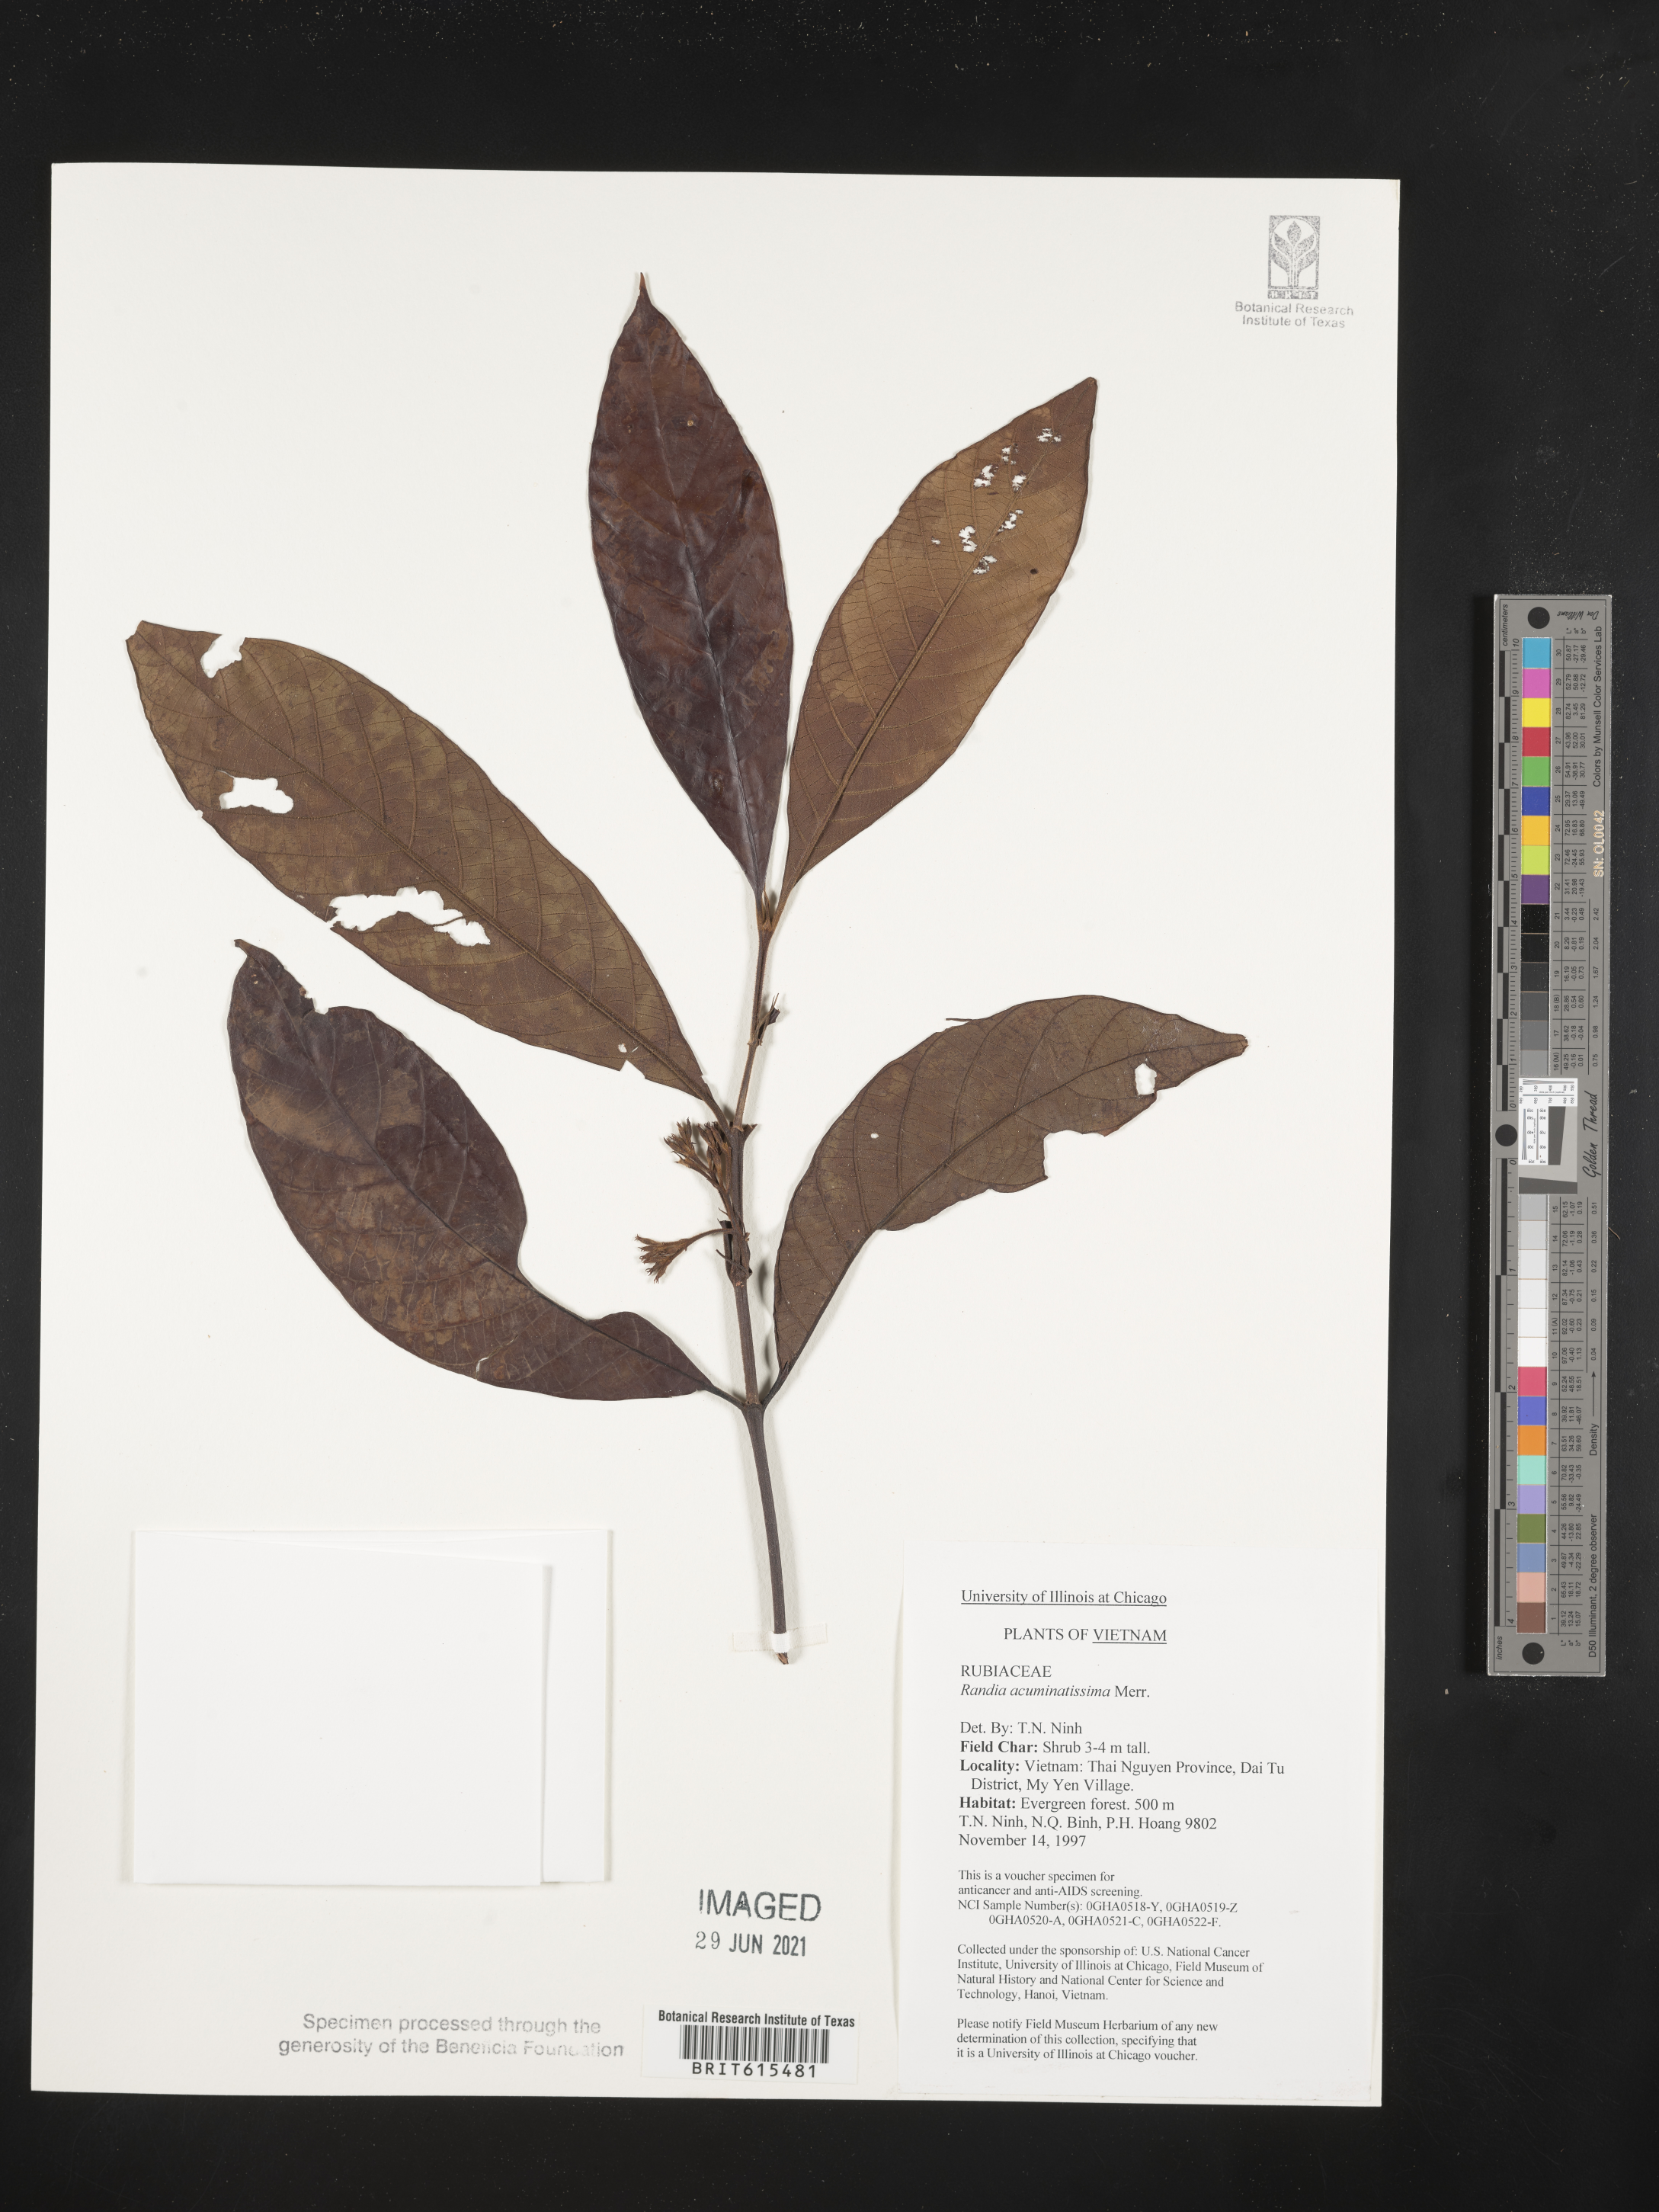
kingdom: Plantae
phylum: Tracheophyta
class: Magnoliopsida
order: Gentianales
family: Rubiaceae
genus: Aidia
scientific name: Aidia pycnantha
